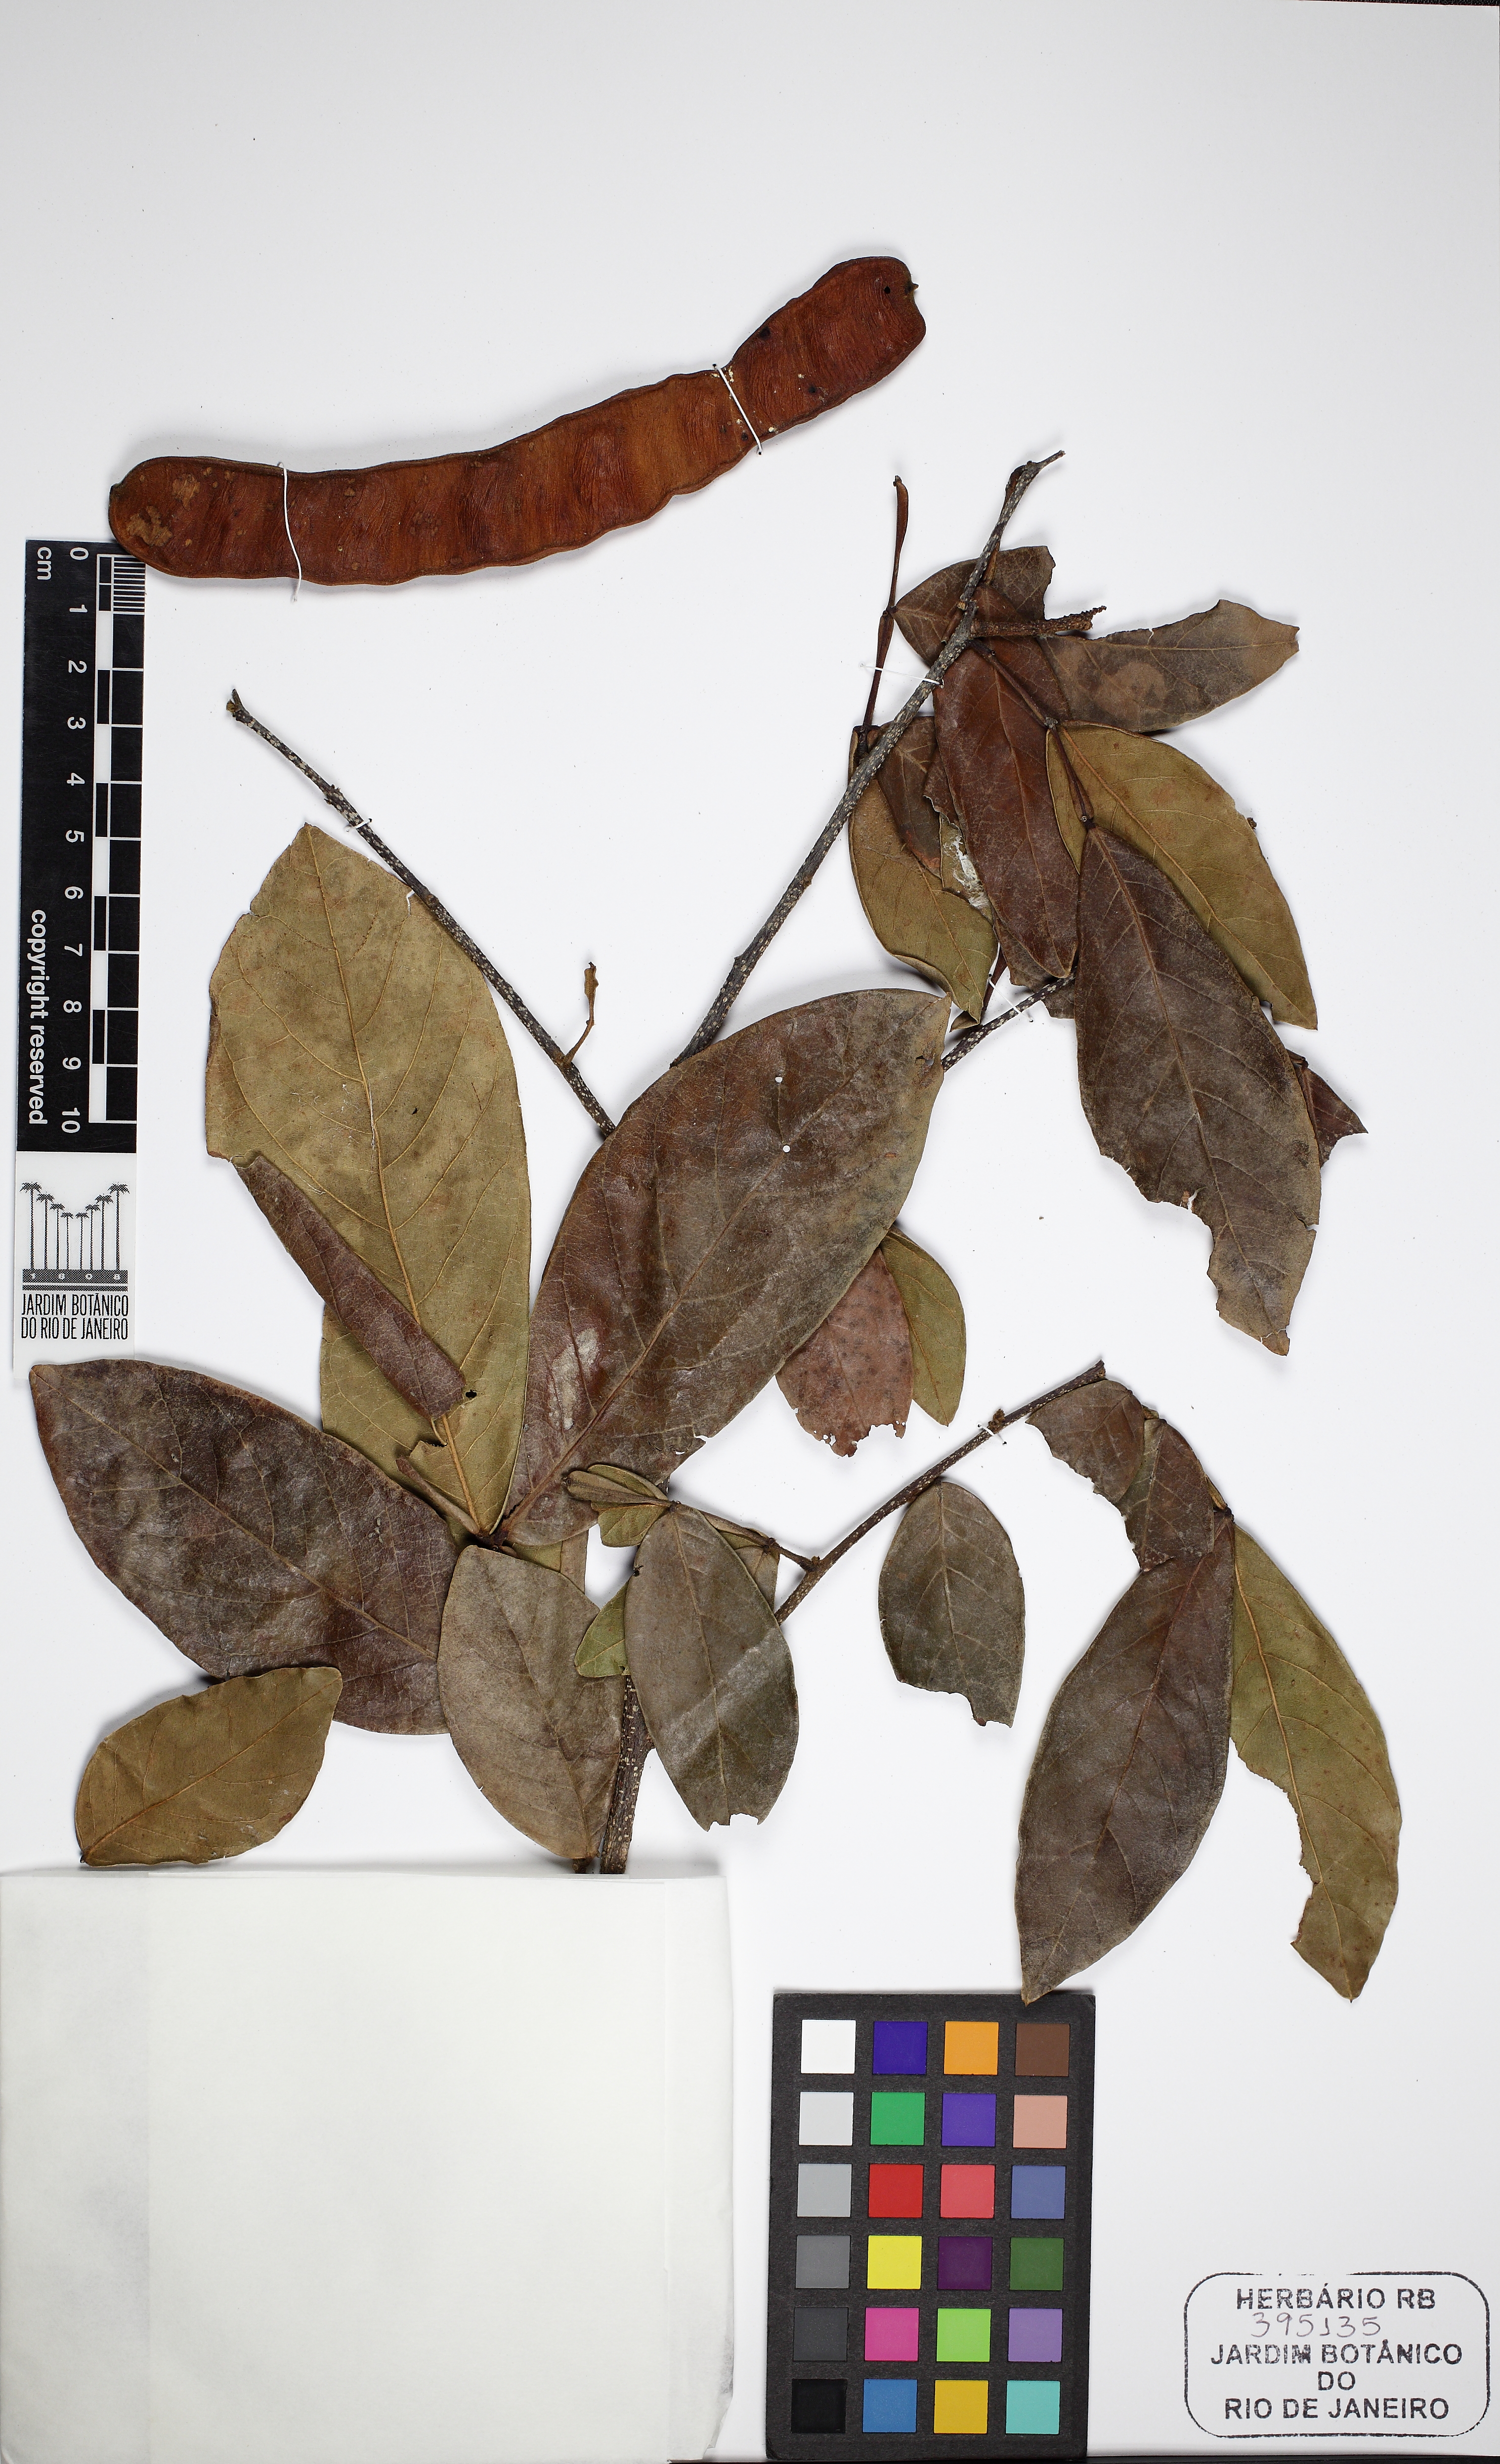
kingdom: Plantae
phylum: Tracheophyta
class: Magnoliopsida
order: Fabales
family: Fabaceae
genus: Inga
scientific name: Inga maritima
